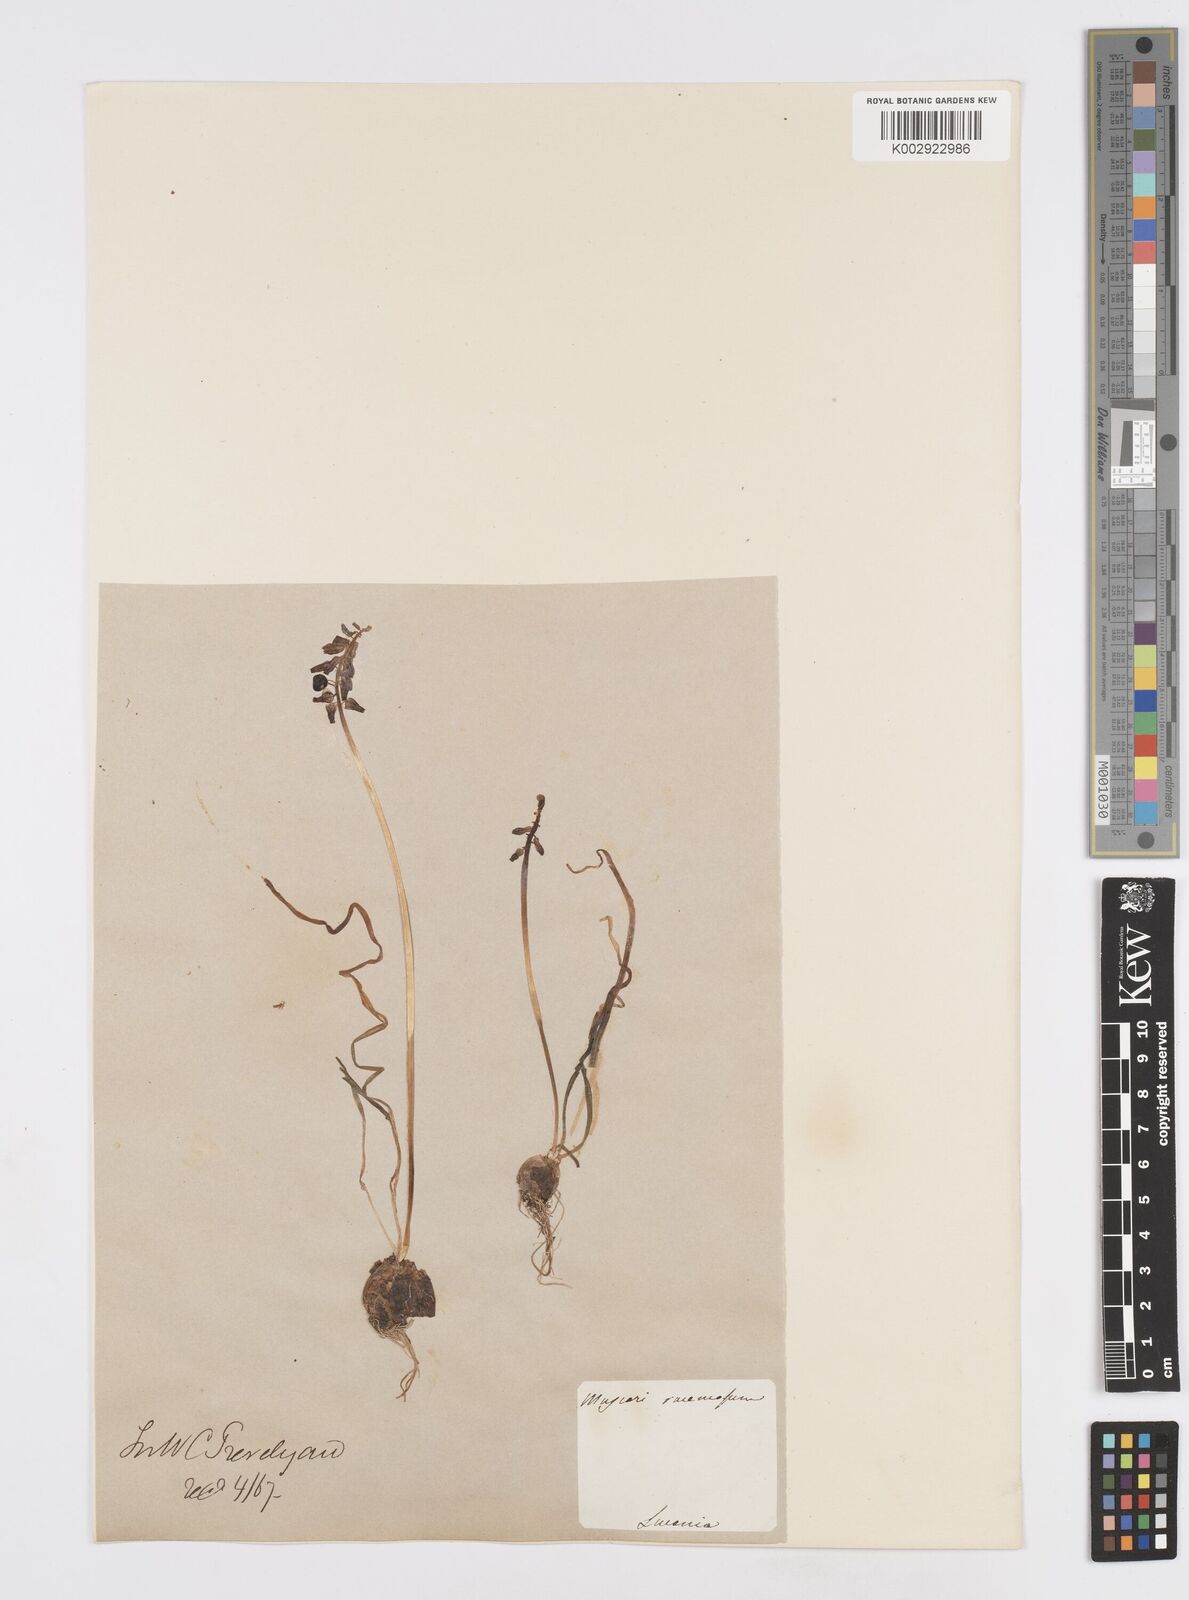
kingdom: Plantae
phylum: Tracheophyta
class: Liliopsida
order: Asparagales
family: Asparagaceae
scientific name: Asparagaceae
